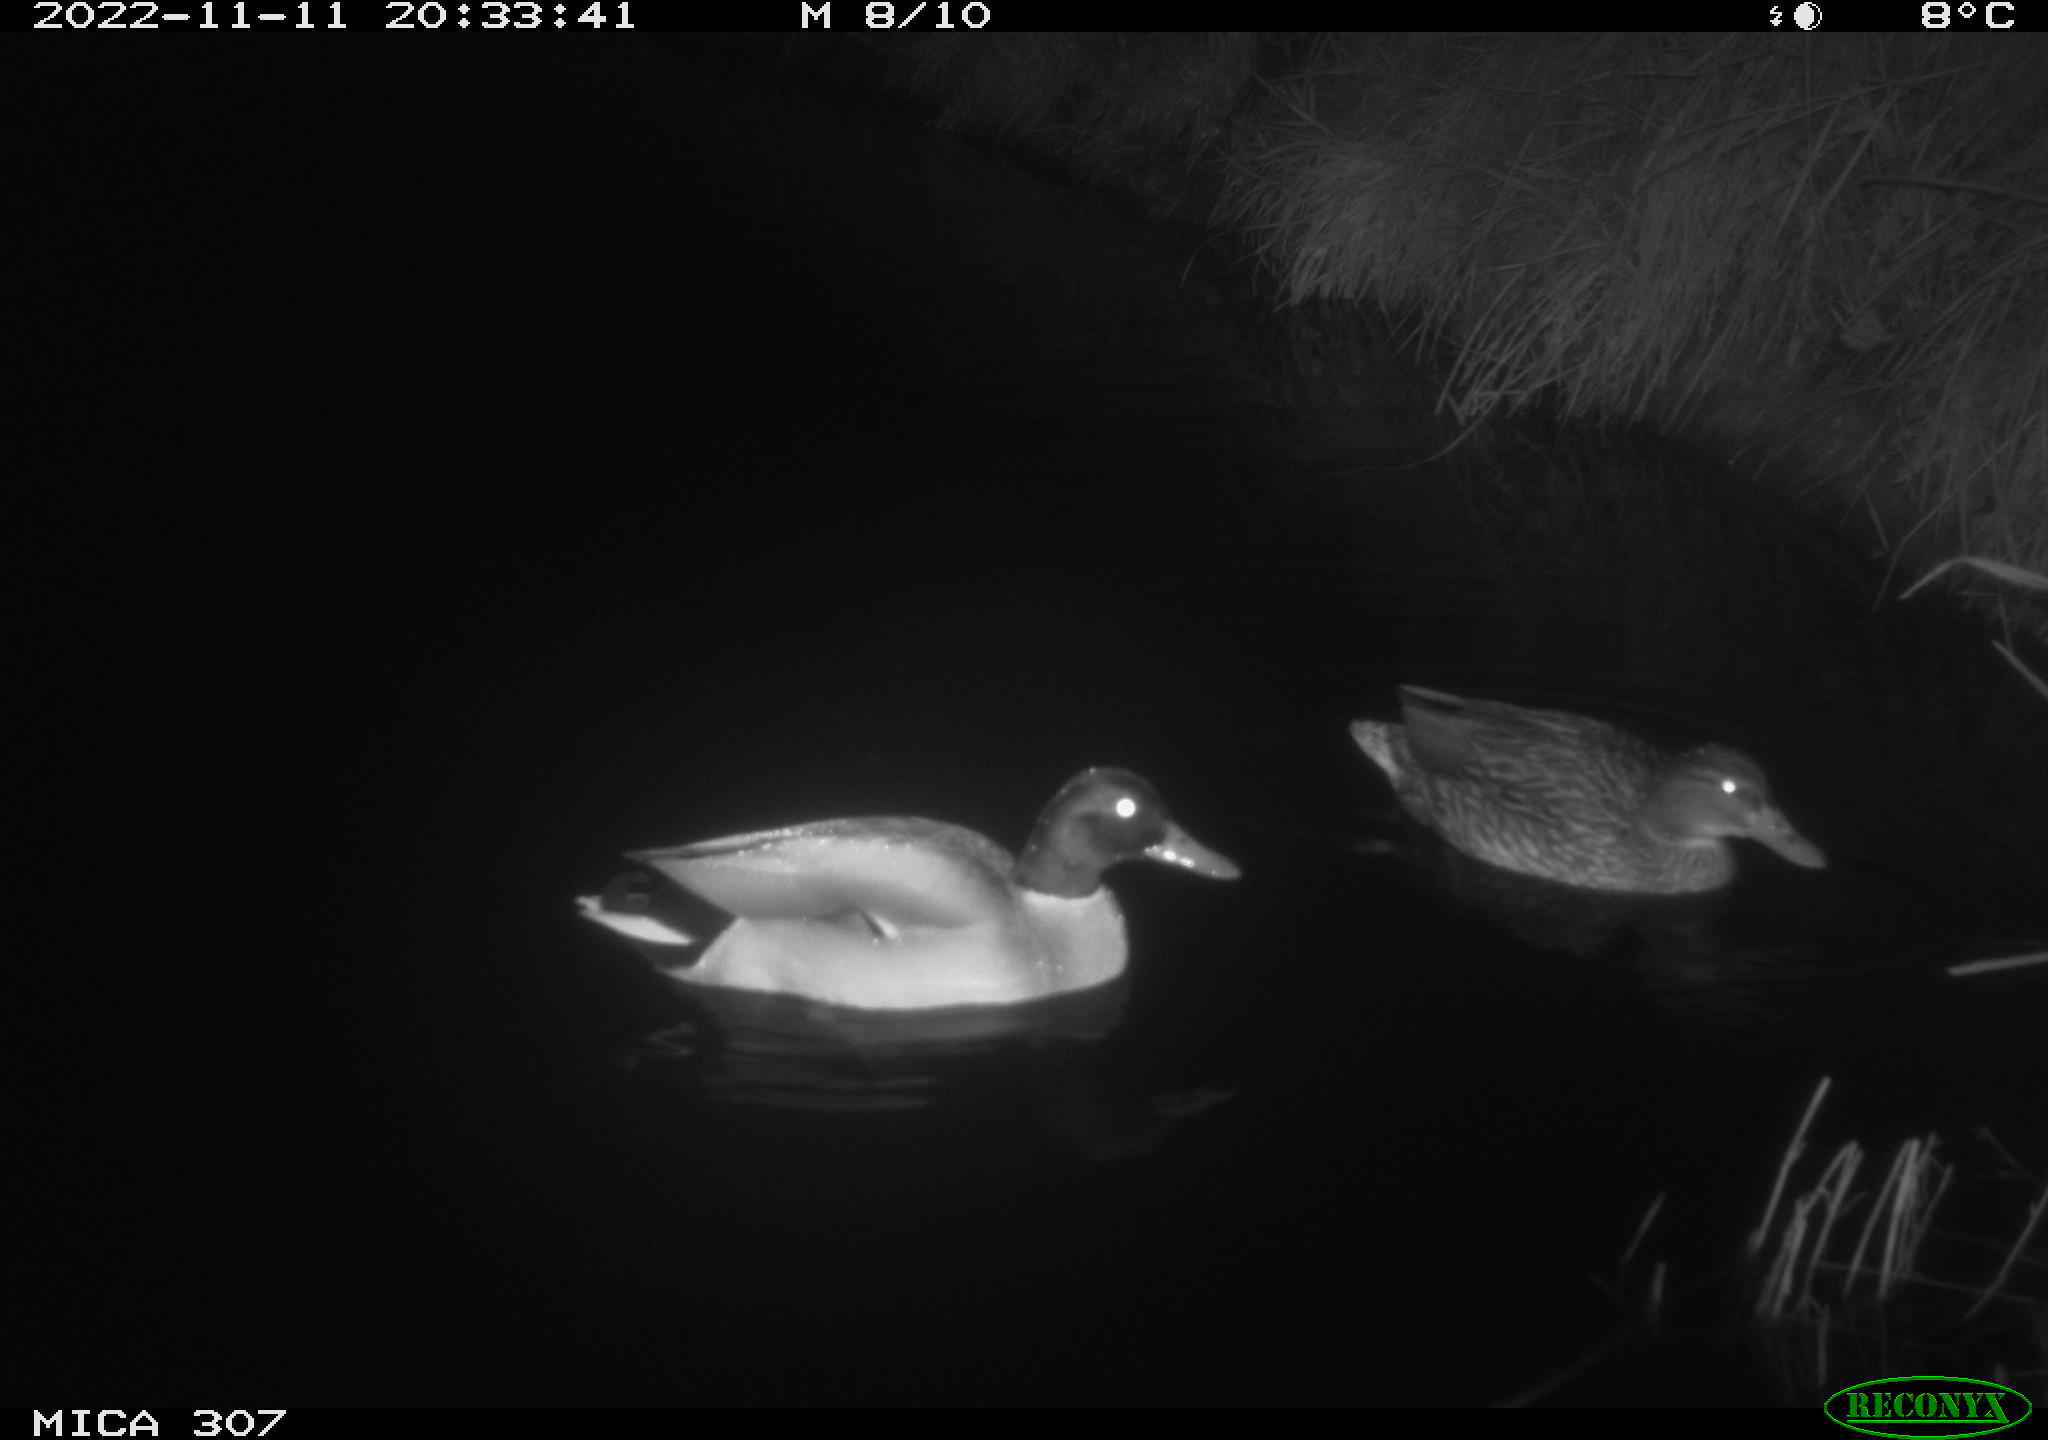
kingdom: Animalia
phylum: Chordata
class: Aves
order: Anseriformes
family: Anatidae
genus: Anas
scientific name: Anas
